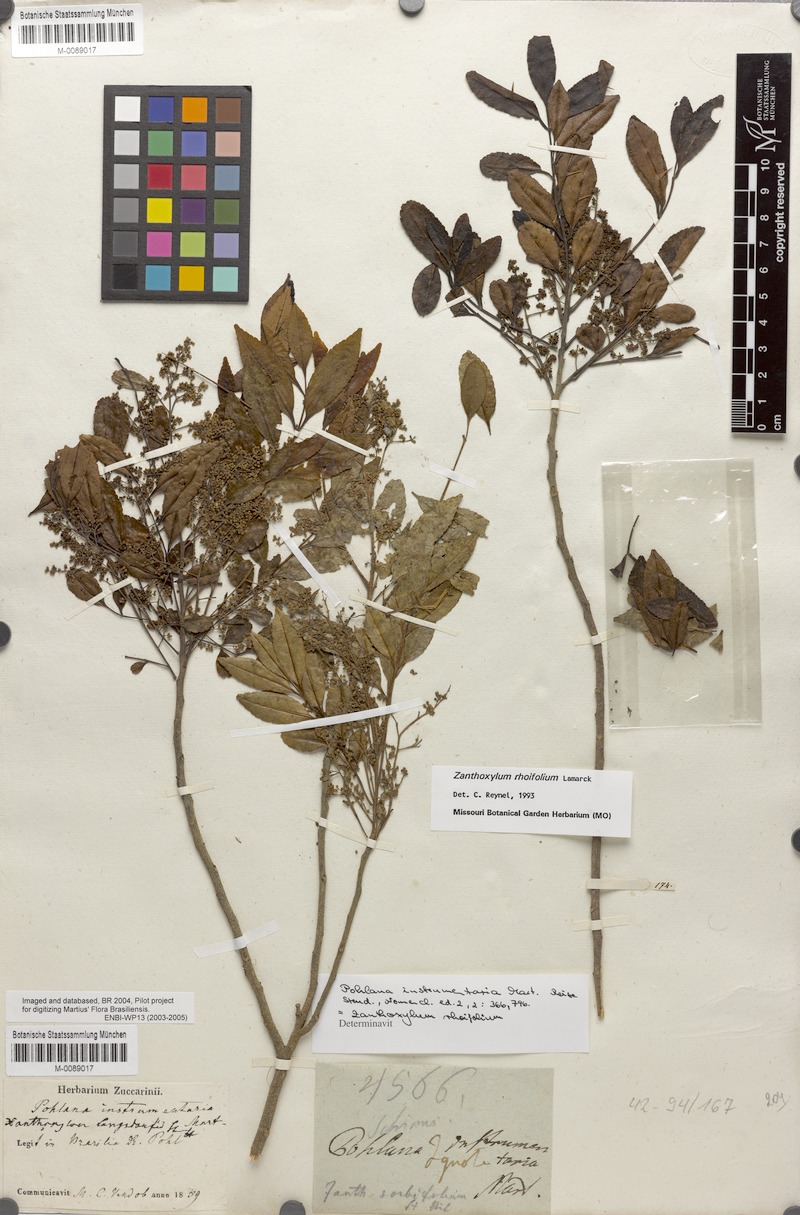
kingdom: Plantae
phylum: Tracheophyta
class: Magnoliopsida
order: Sapindales
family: Rutaceae
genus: Zanthoxylum
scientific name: Zanthoxylum rhoifolium
